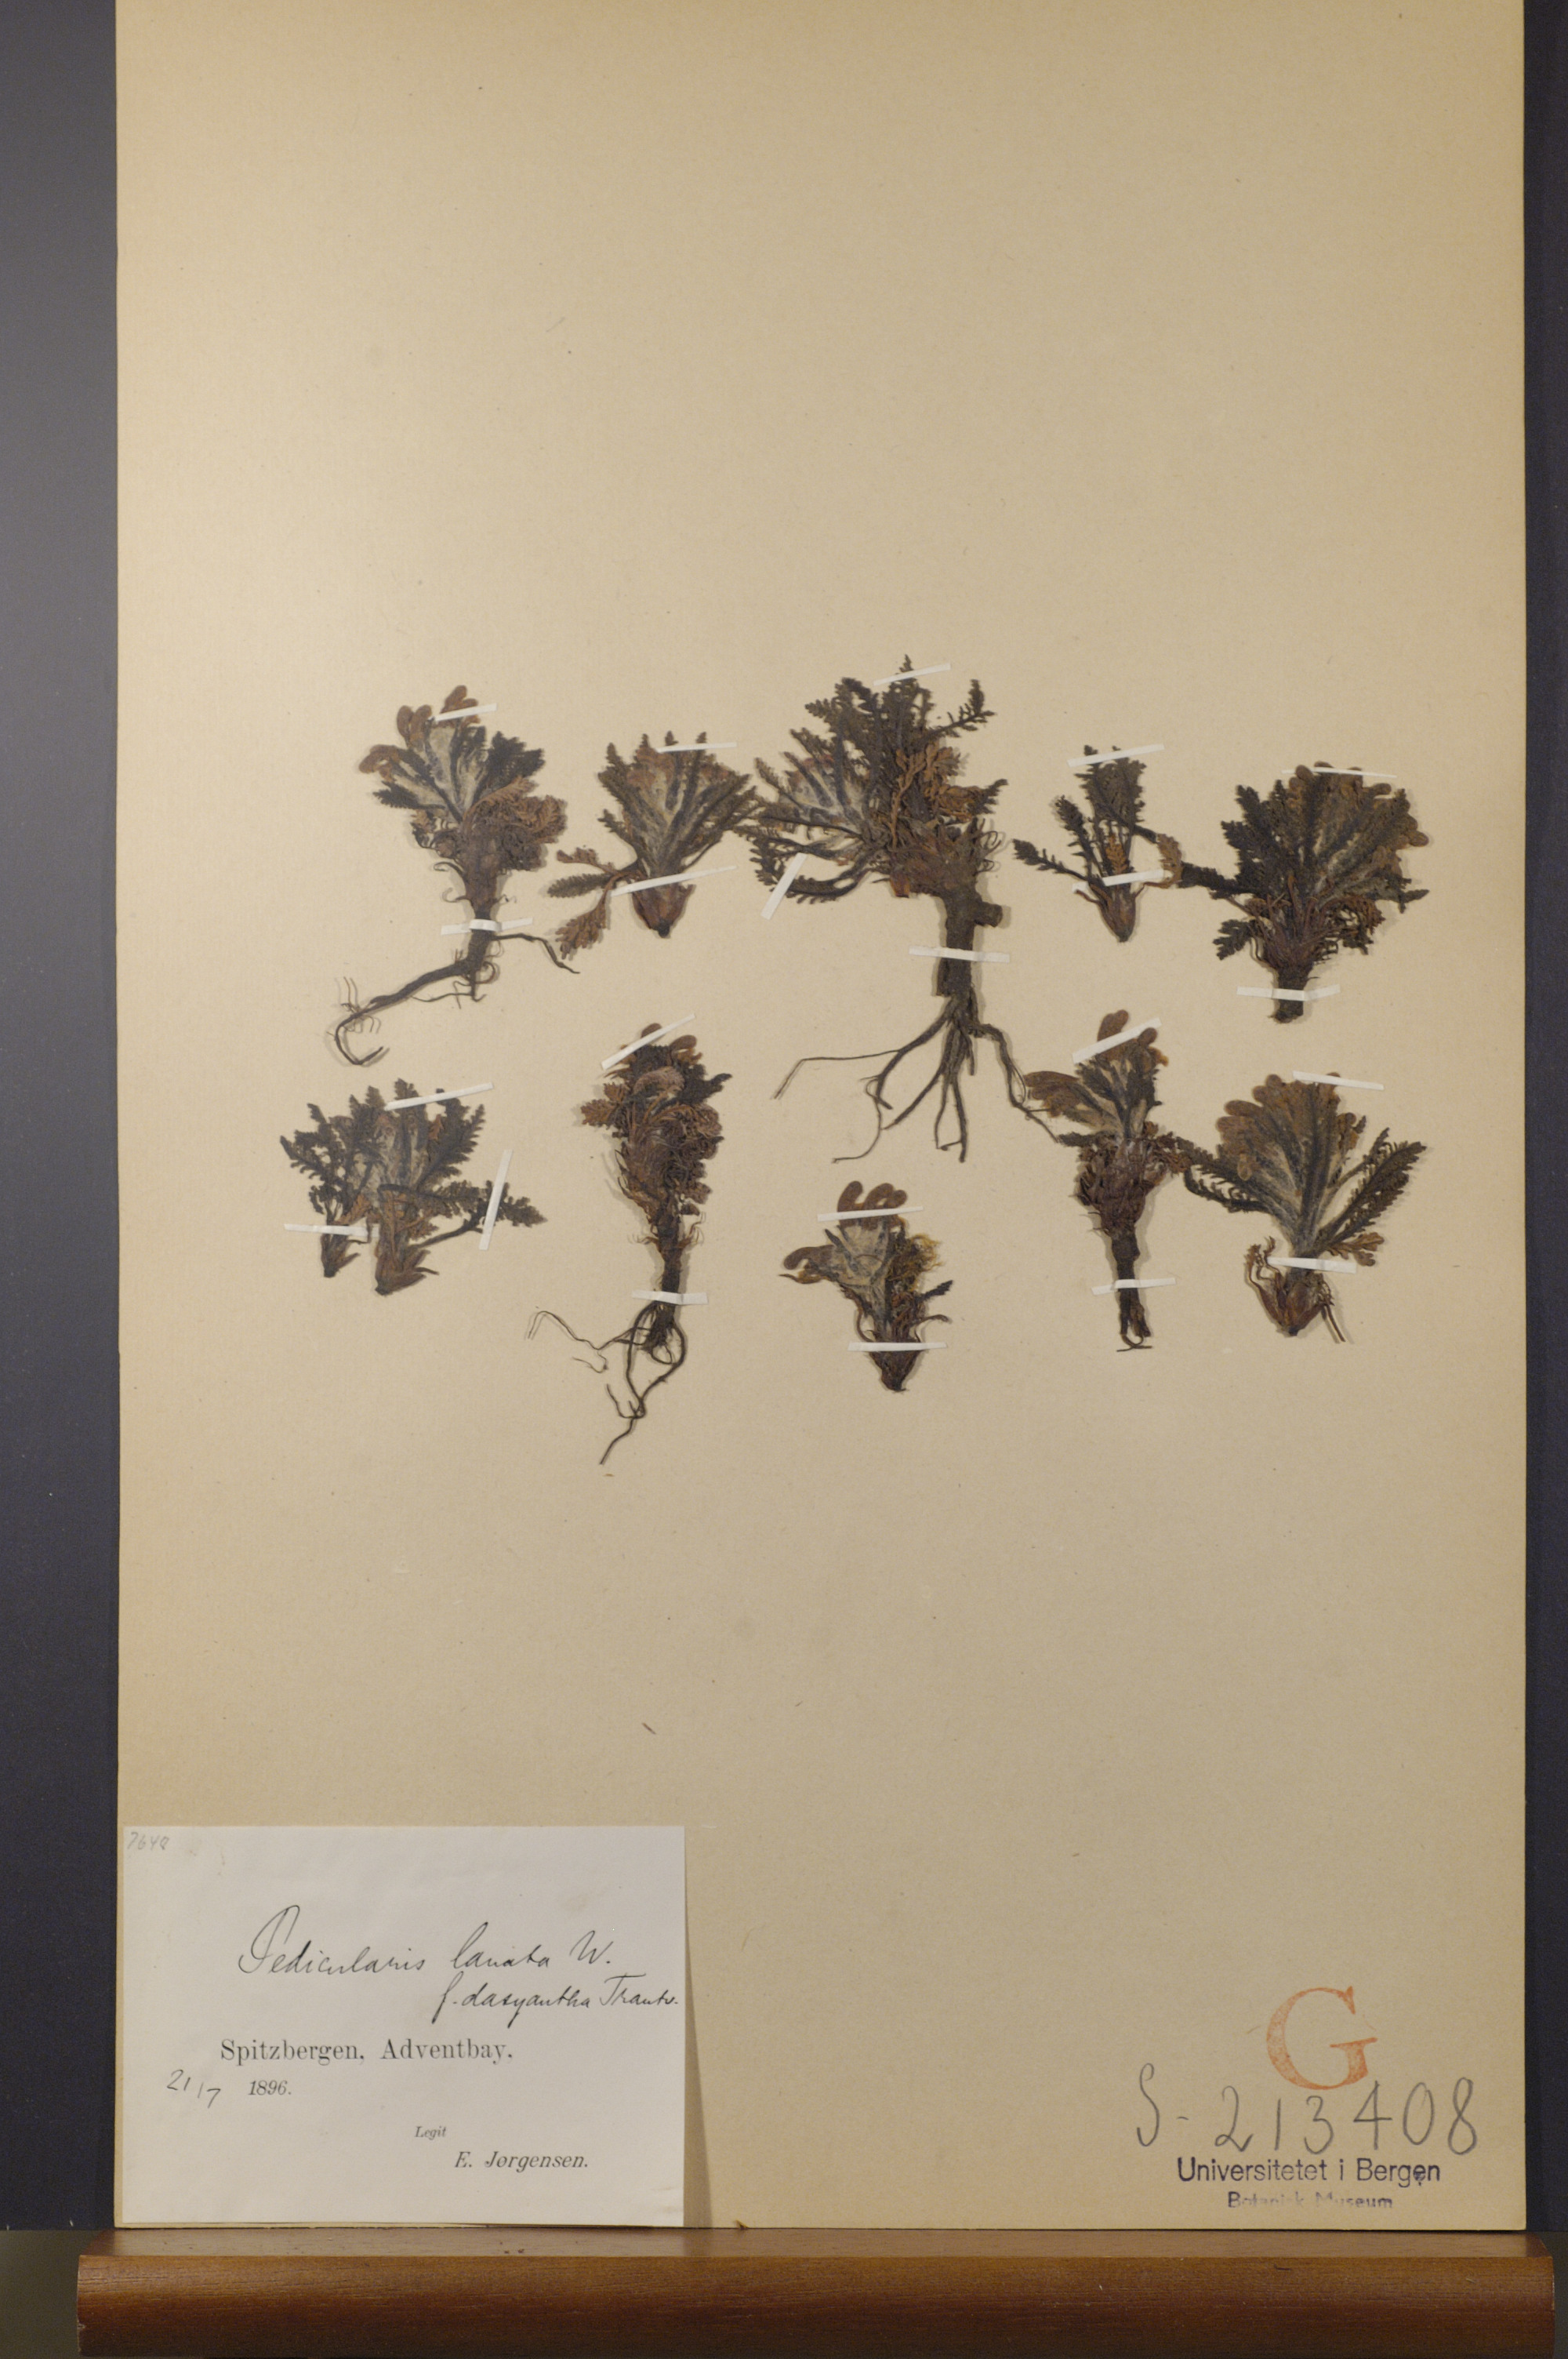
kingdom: Plantae
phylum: Tracheophyta
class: Magnoliopsida
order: Lamiales
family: Orobanchaceae
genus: Pedicularis
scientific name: Pedicularis dasyantha
